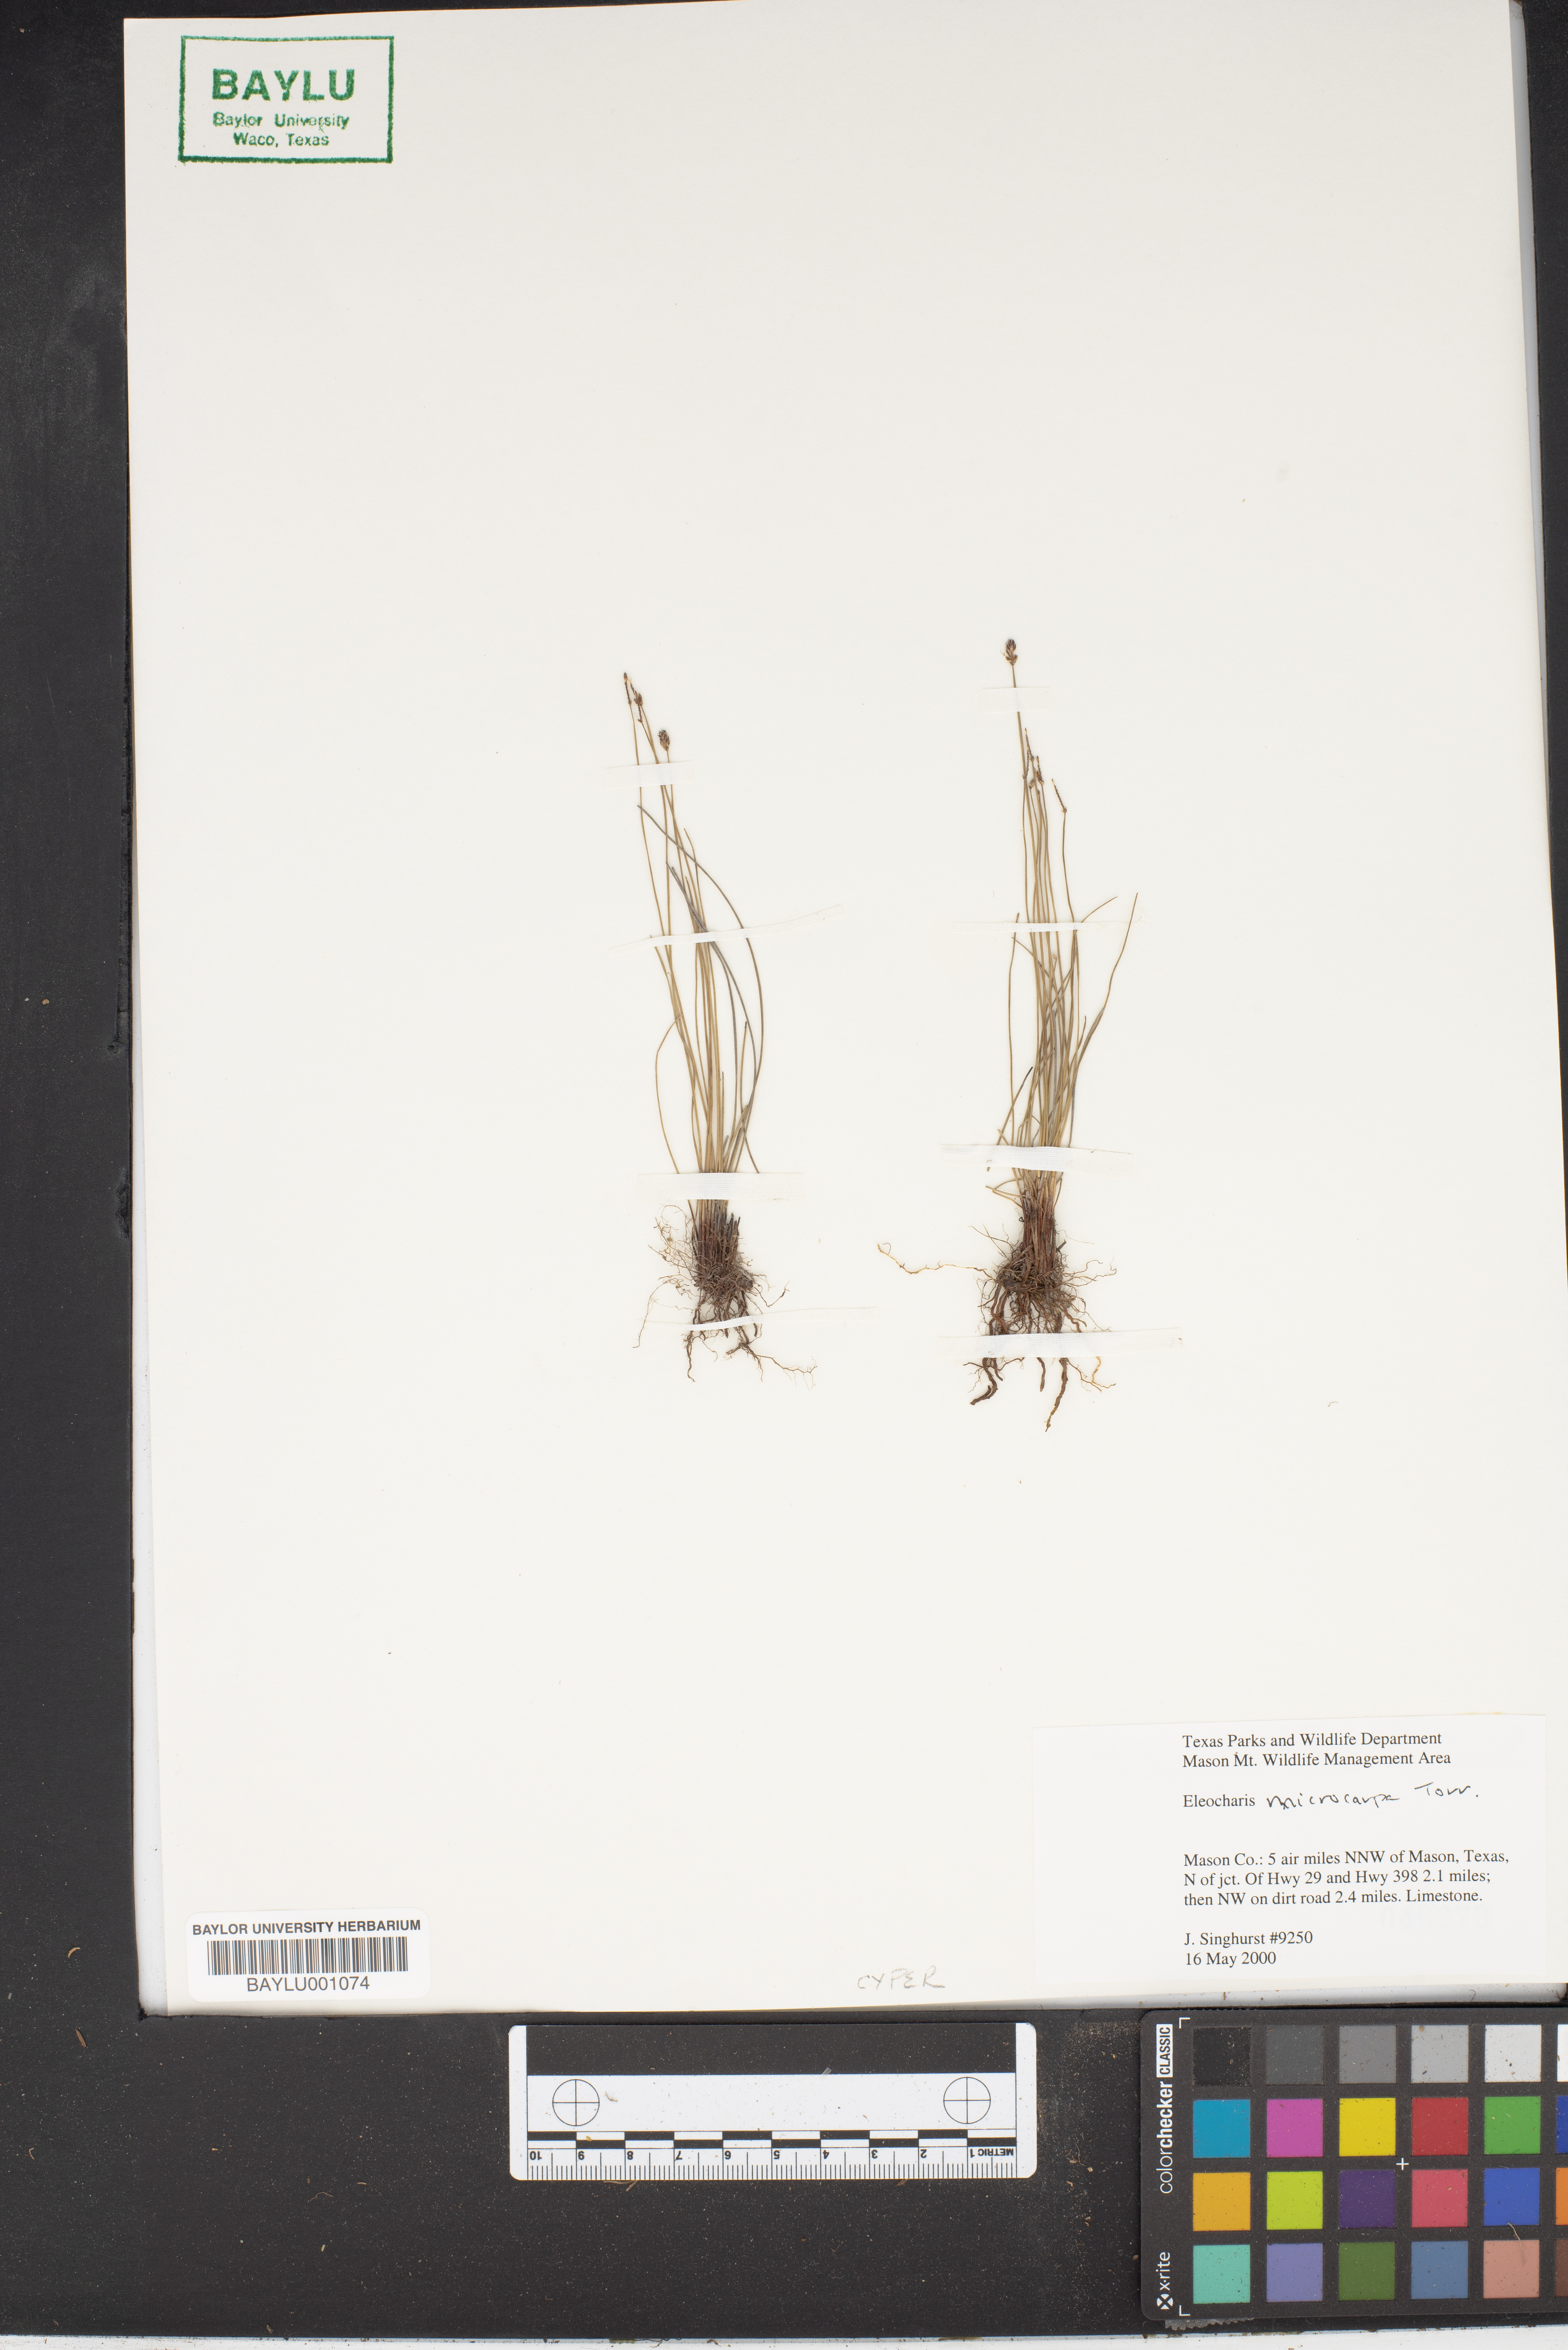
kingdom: Plantae
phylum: Tracheophyta
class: Liliopsida
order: Poales
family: Cyperaceae
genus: Eleocharis
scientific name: Eleocharis microcarpa
